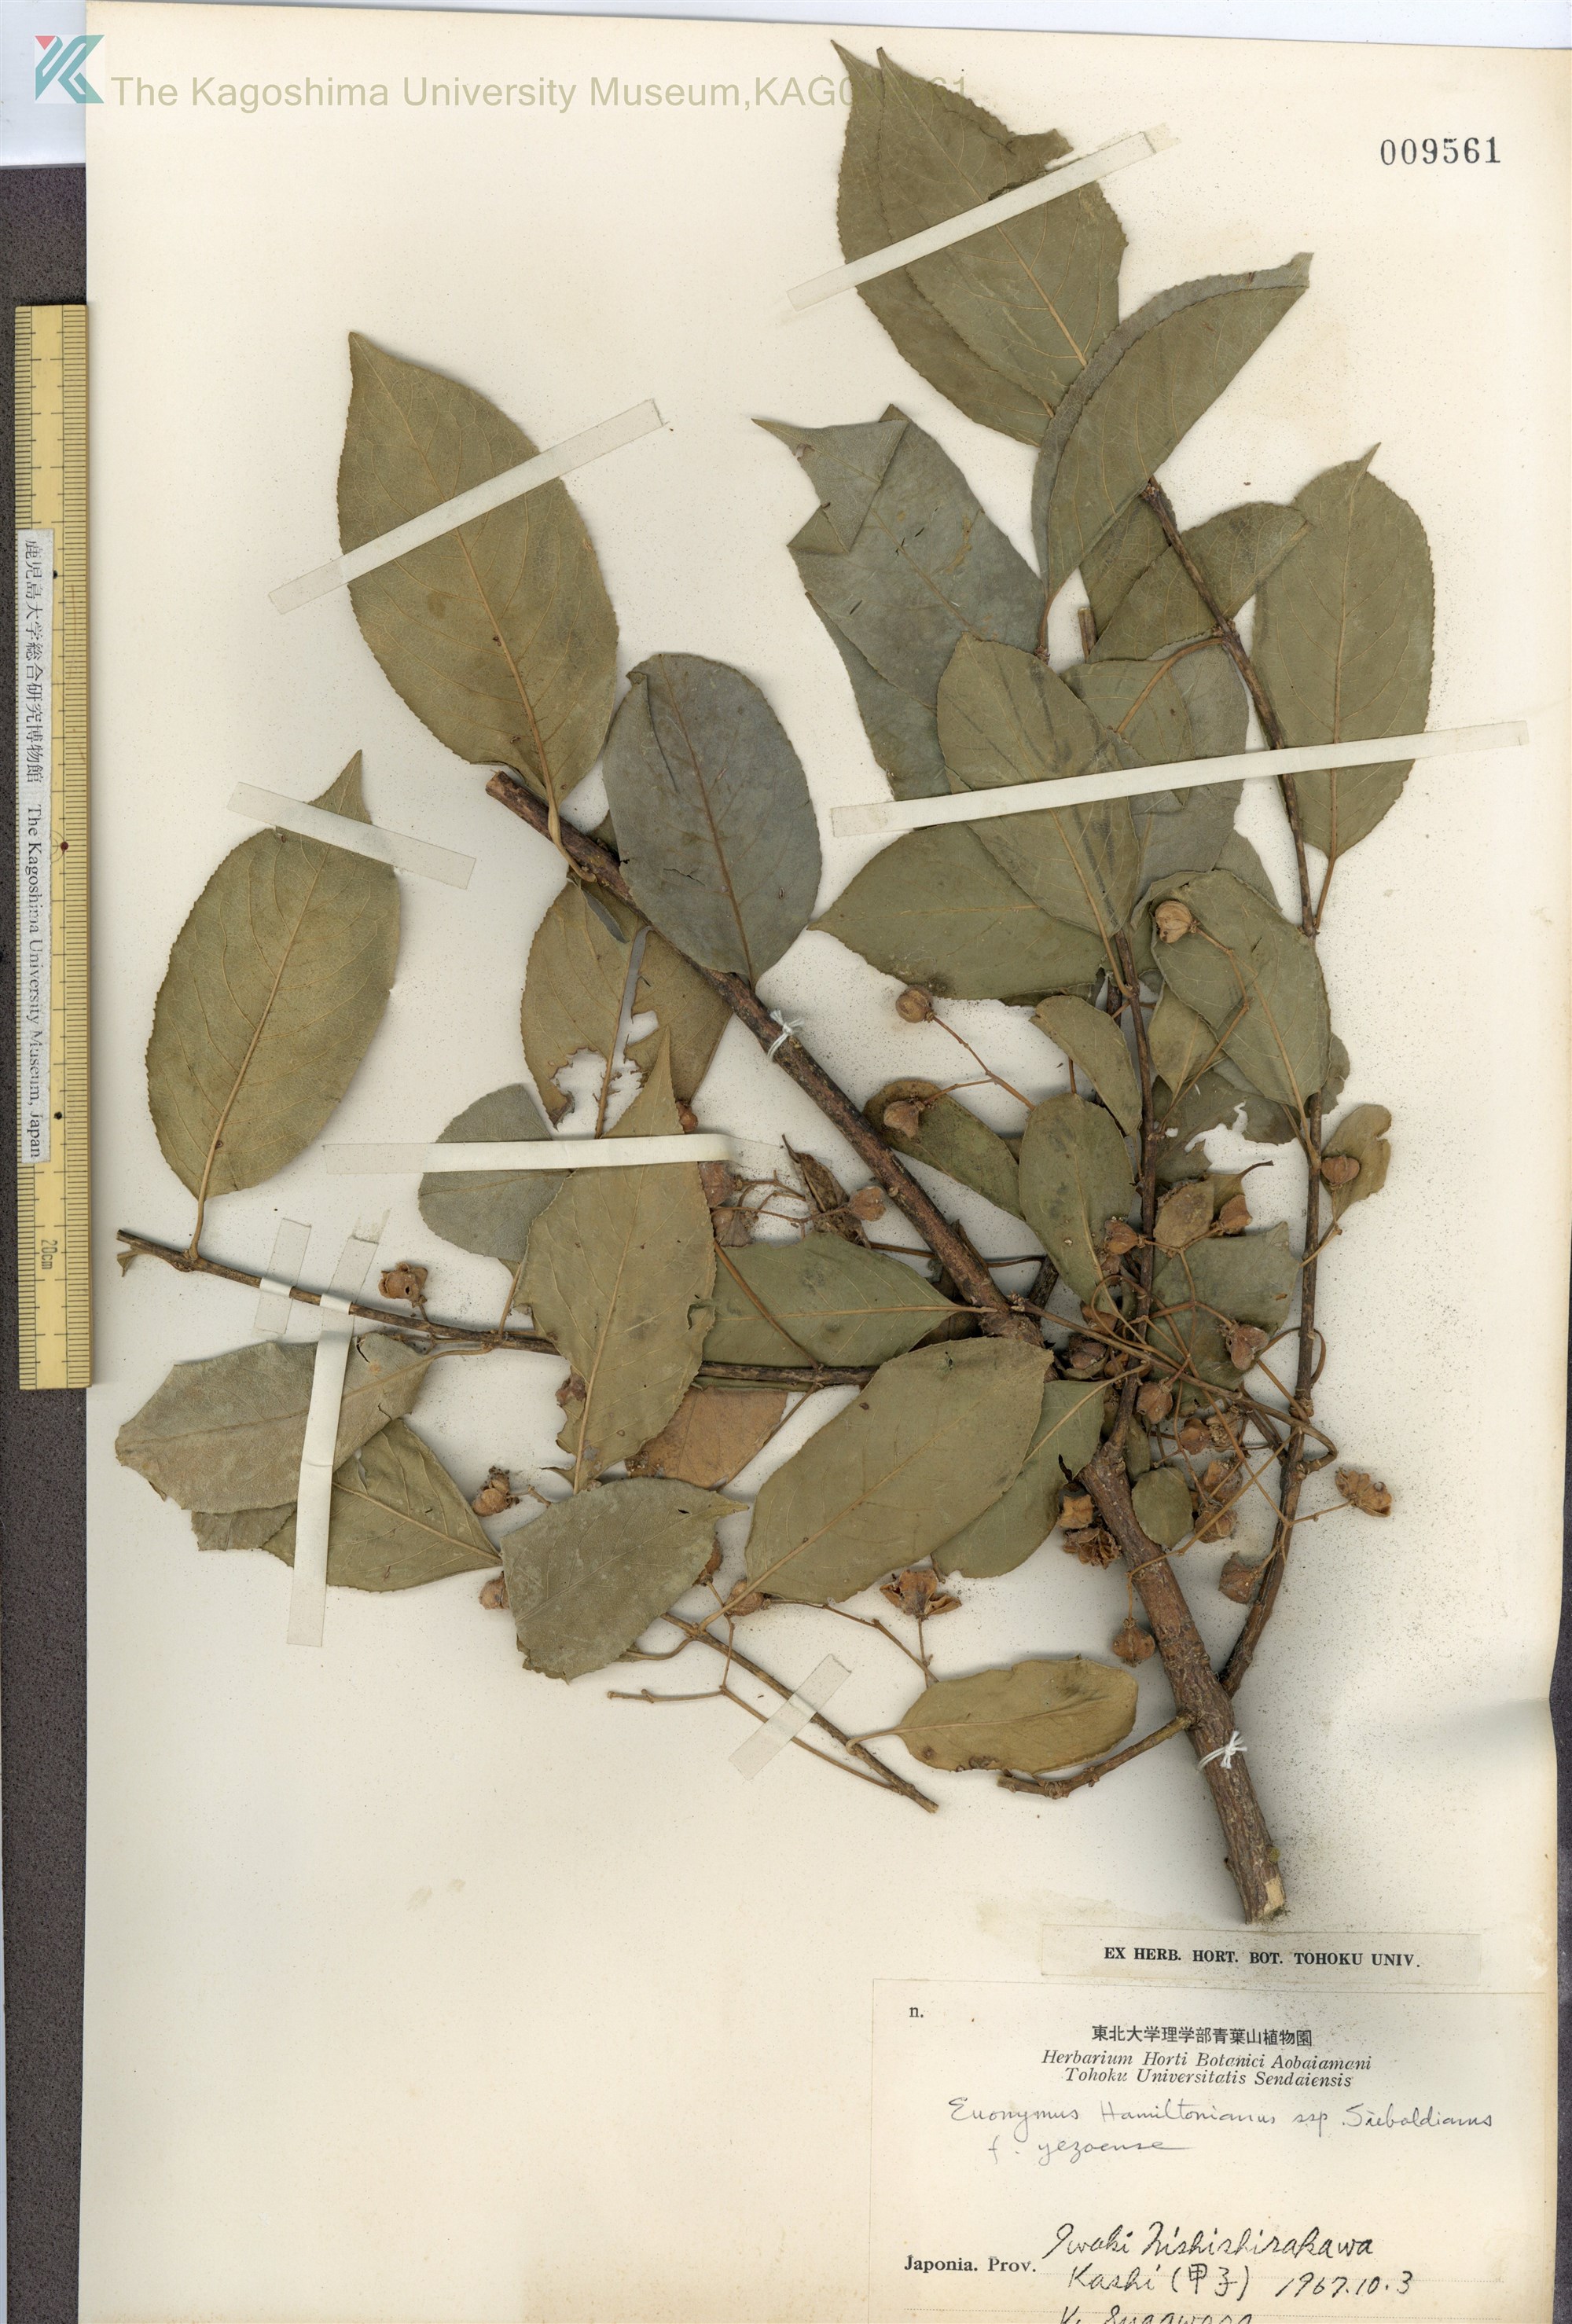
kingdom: Plantae
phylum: Tracheophyta
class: Magnoliopsida
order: Celastrales
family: Celastraceae
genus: Euonymus
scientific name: Euonymus hamiltonianus
